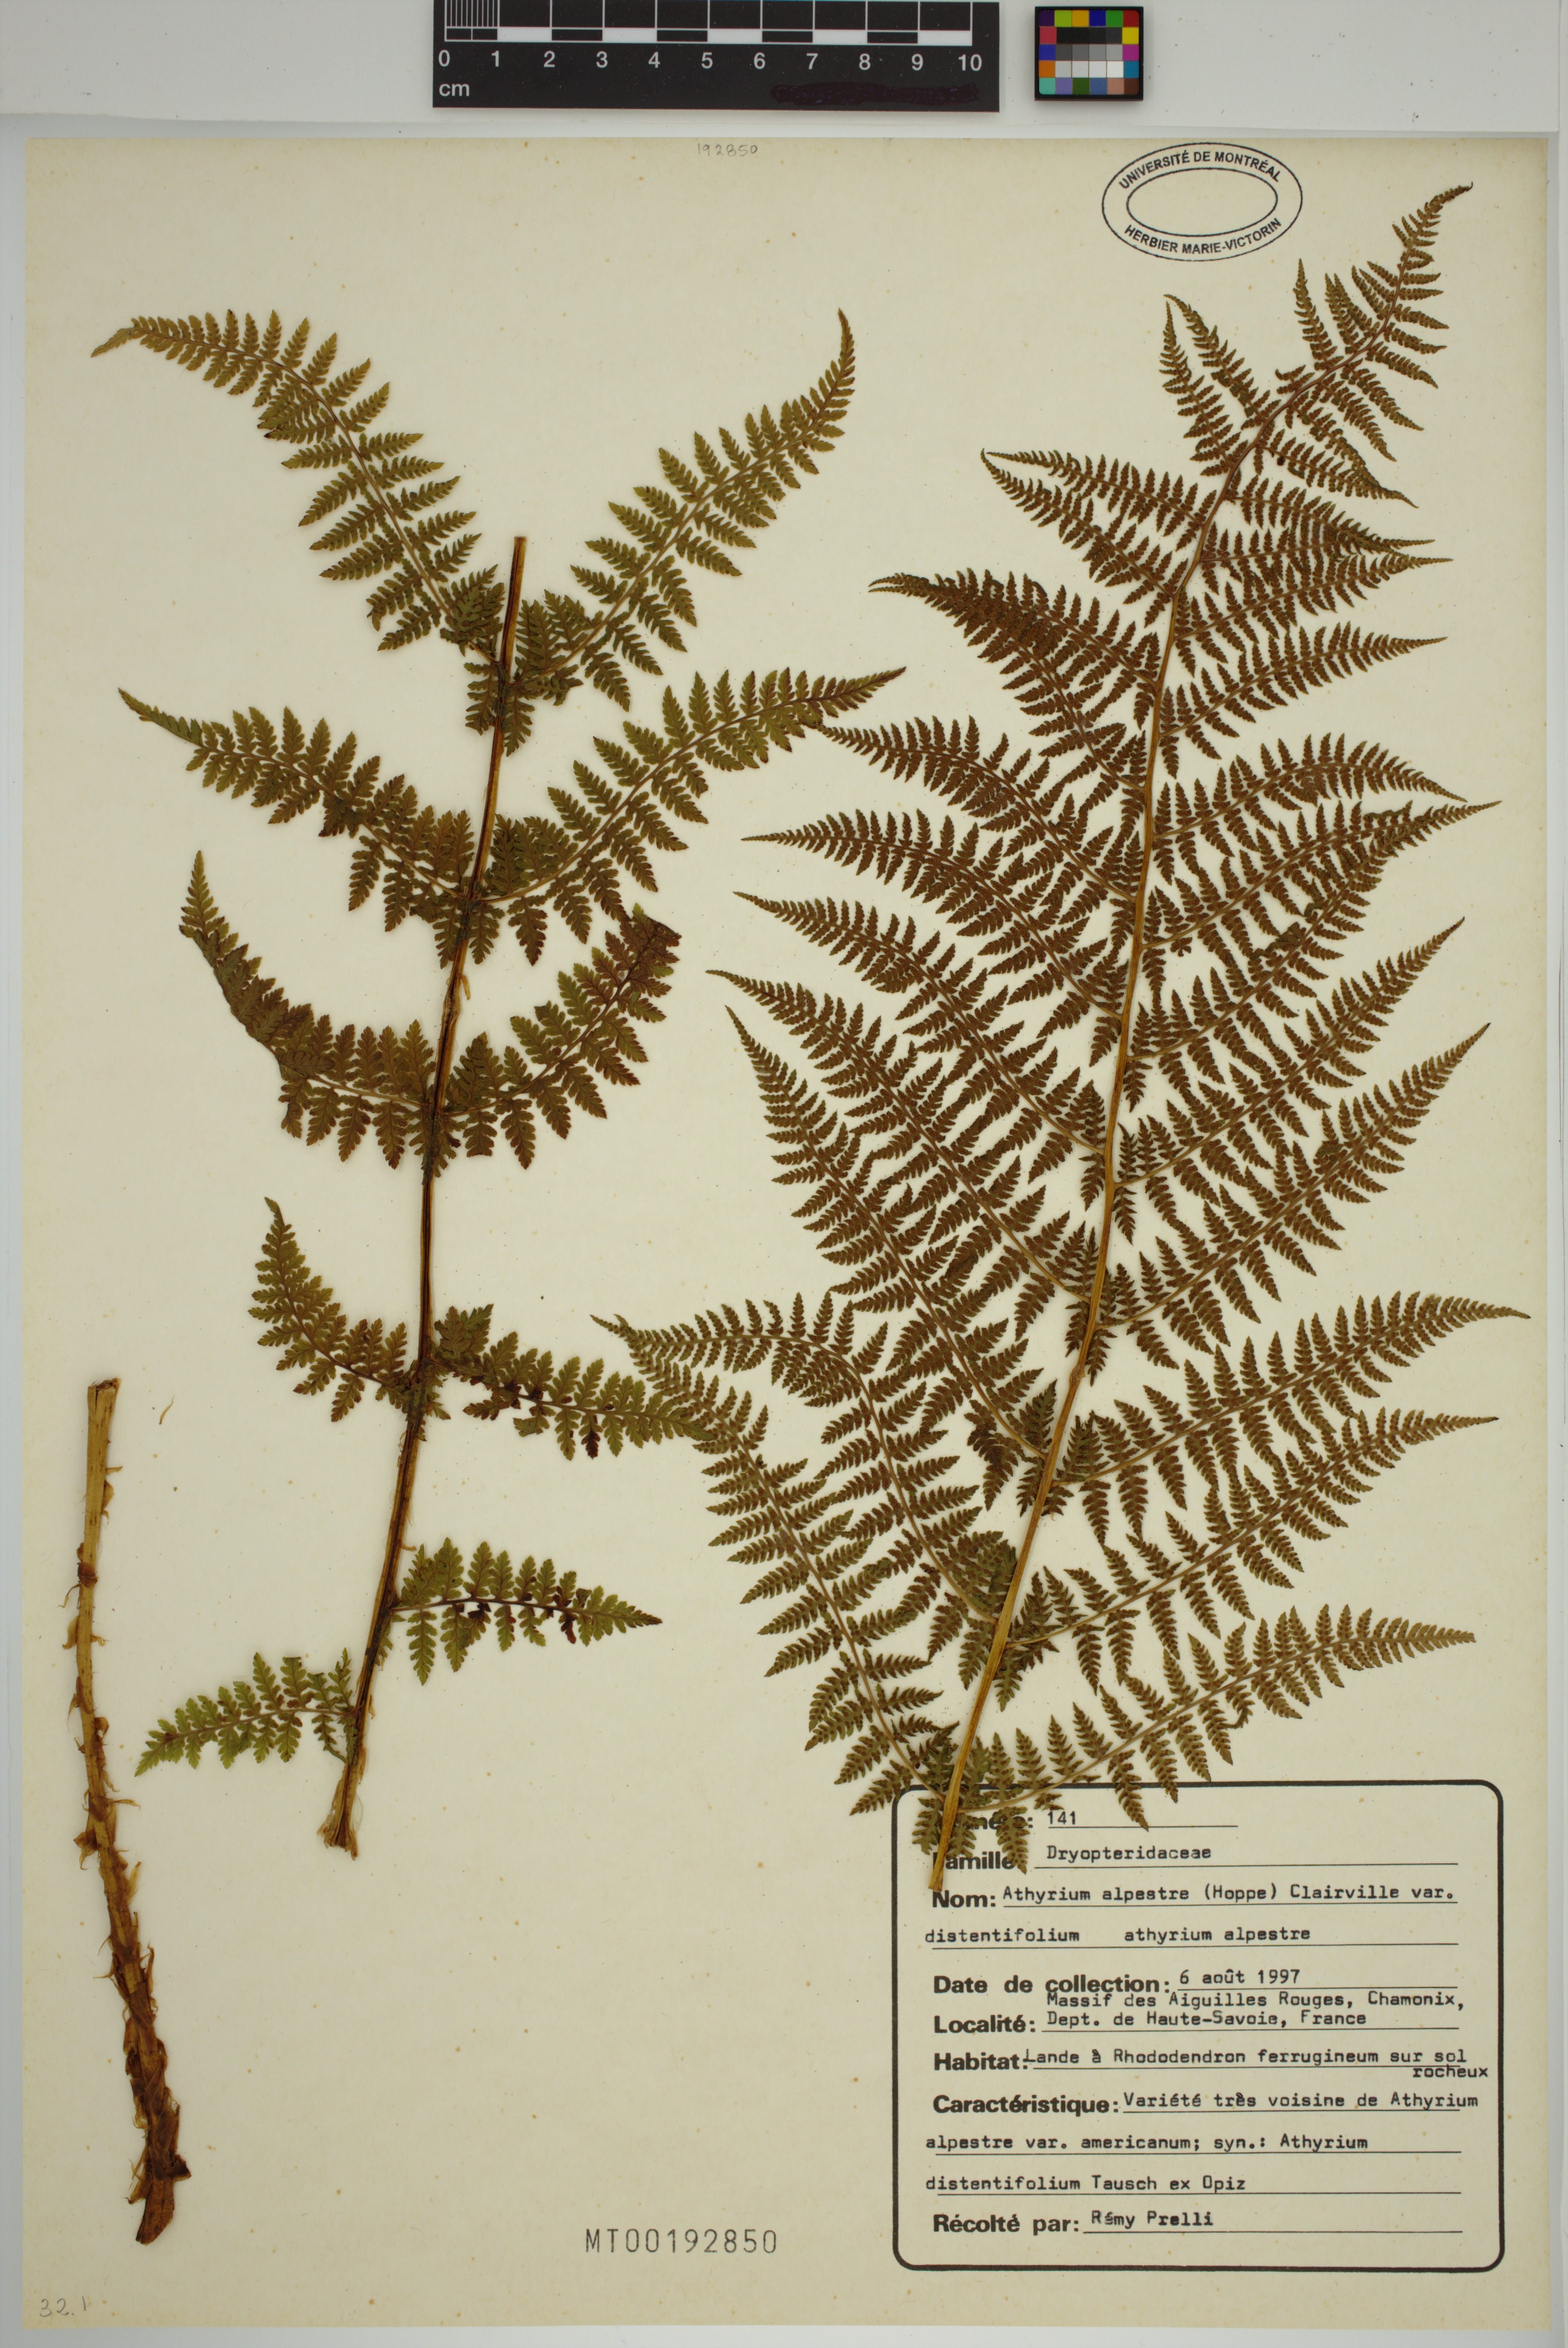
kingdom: Plantae
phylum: Tracheophyta
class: Polypodiopsida
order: Polypodiales
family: Athyriaceae
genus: Athyrium
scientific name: Athyrium filix-femina
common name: Lady fern
